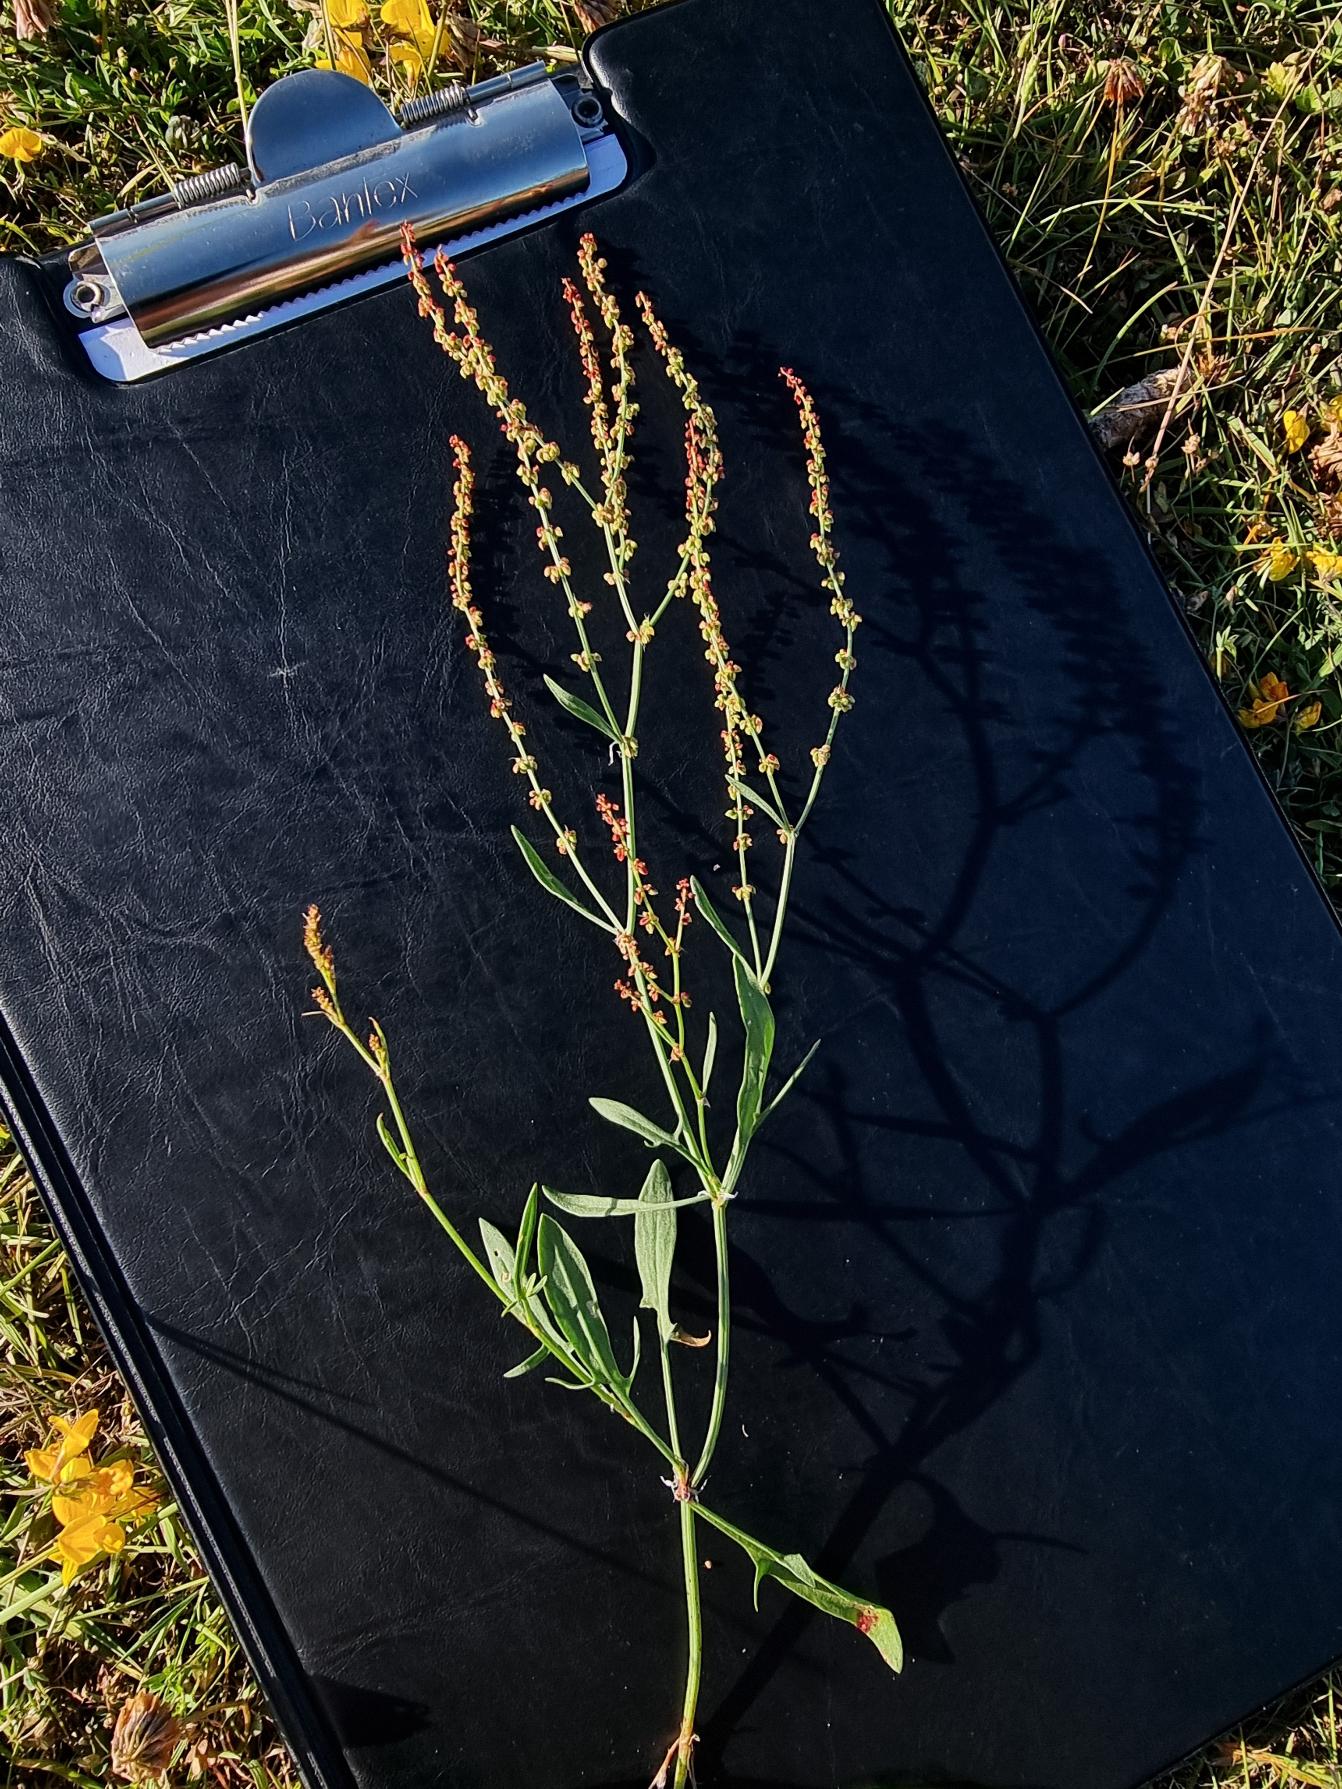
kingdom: Plantae
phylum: Tracheophyta
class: Magnoliopsida
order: Caryophyllales
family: Polygonaceae
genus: Rumex
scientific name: Rumex acetosella
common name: Rødknæ
